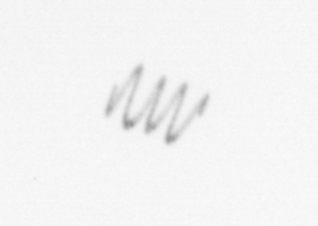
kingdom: Chromista
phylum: Ochrophyta
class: Bacillariophyceae
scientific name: Bacillariophyceae
